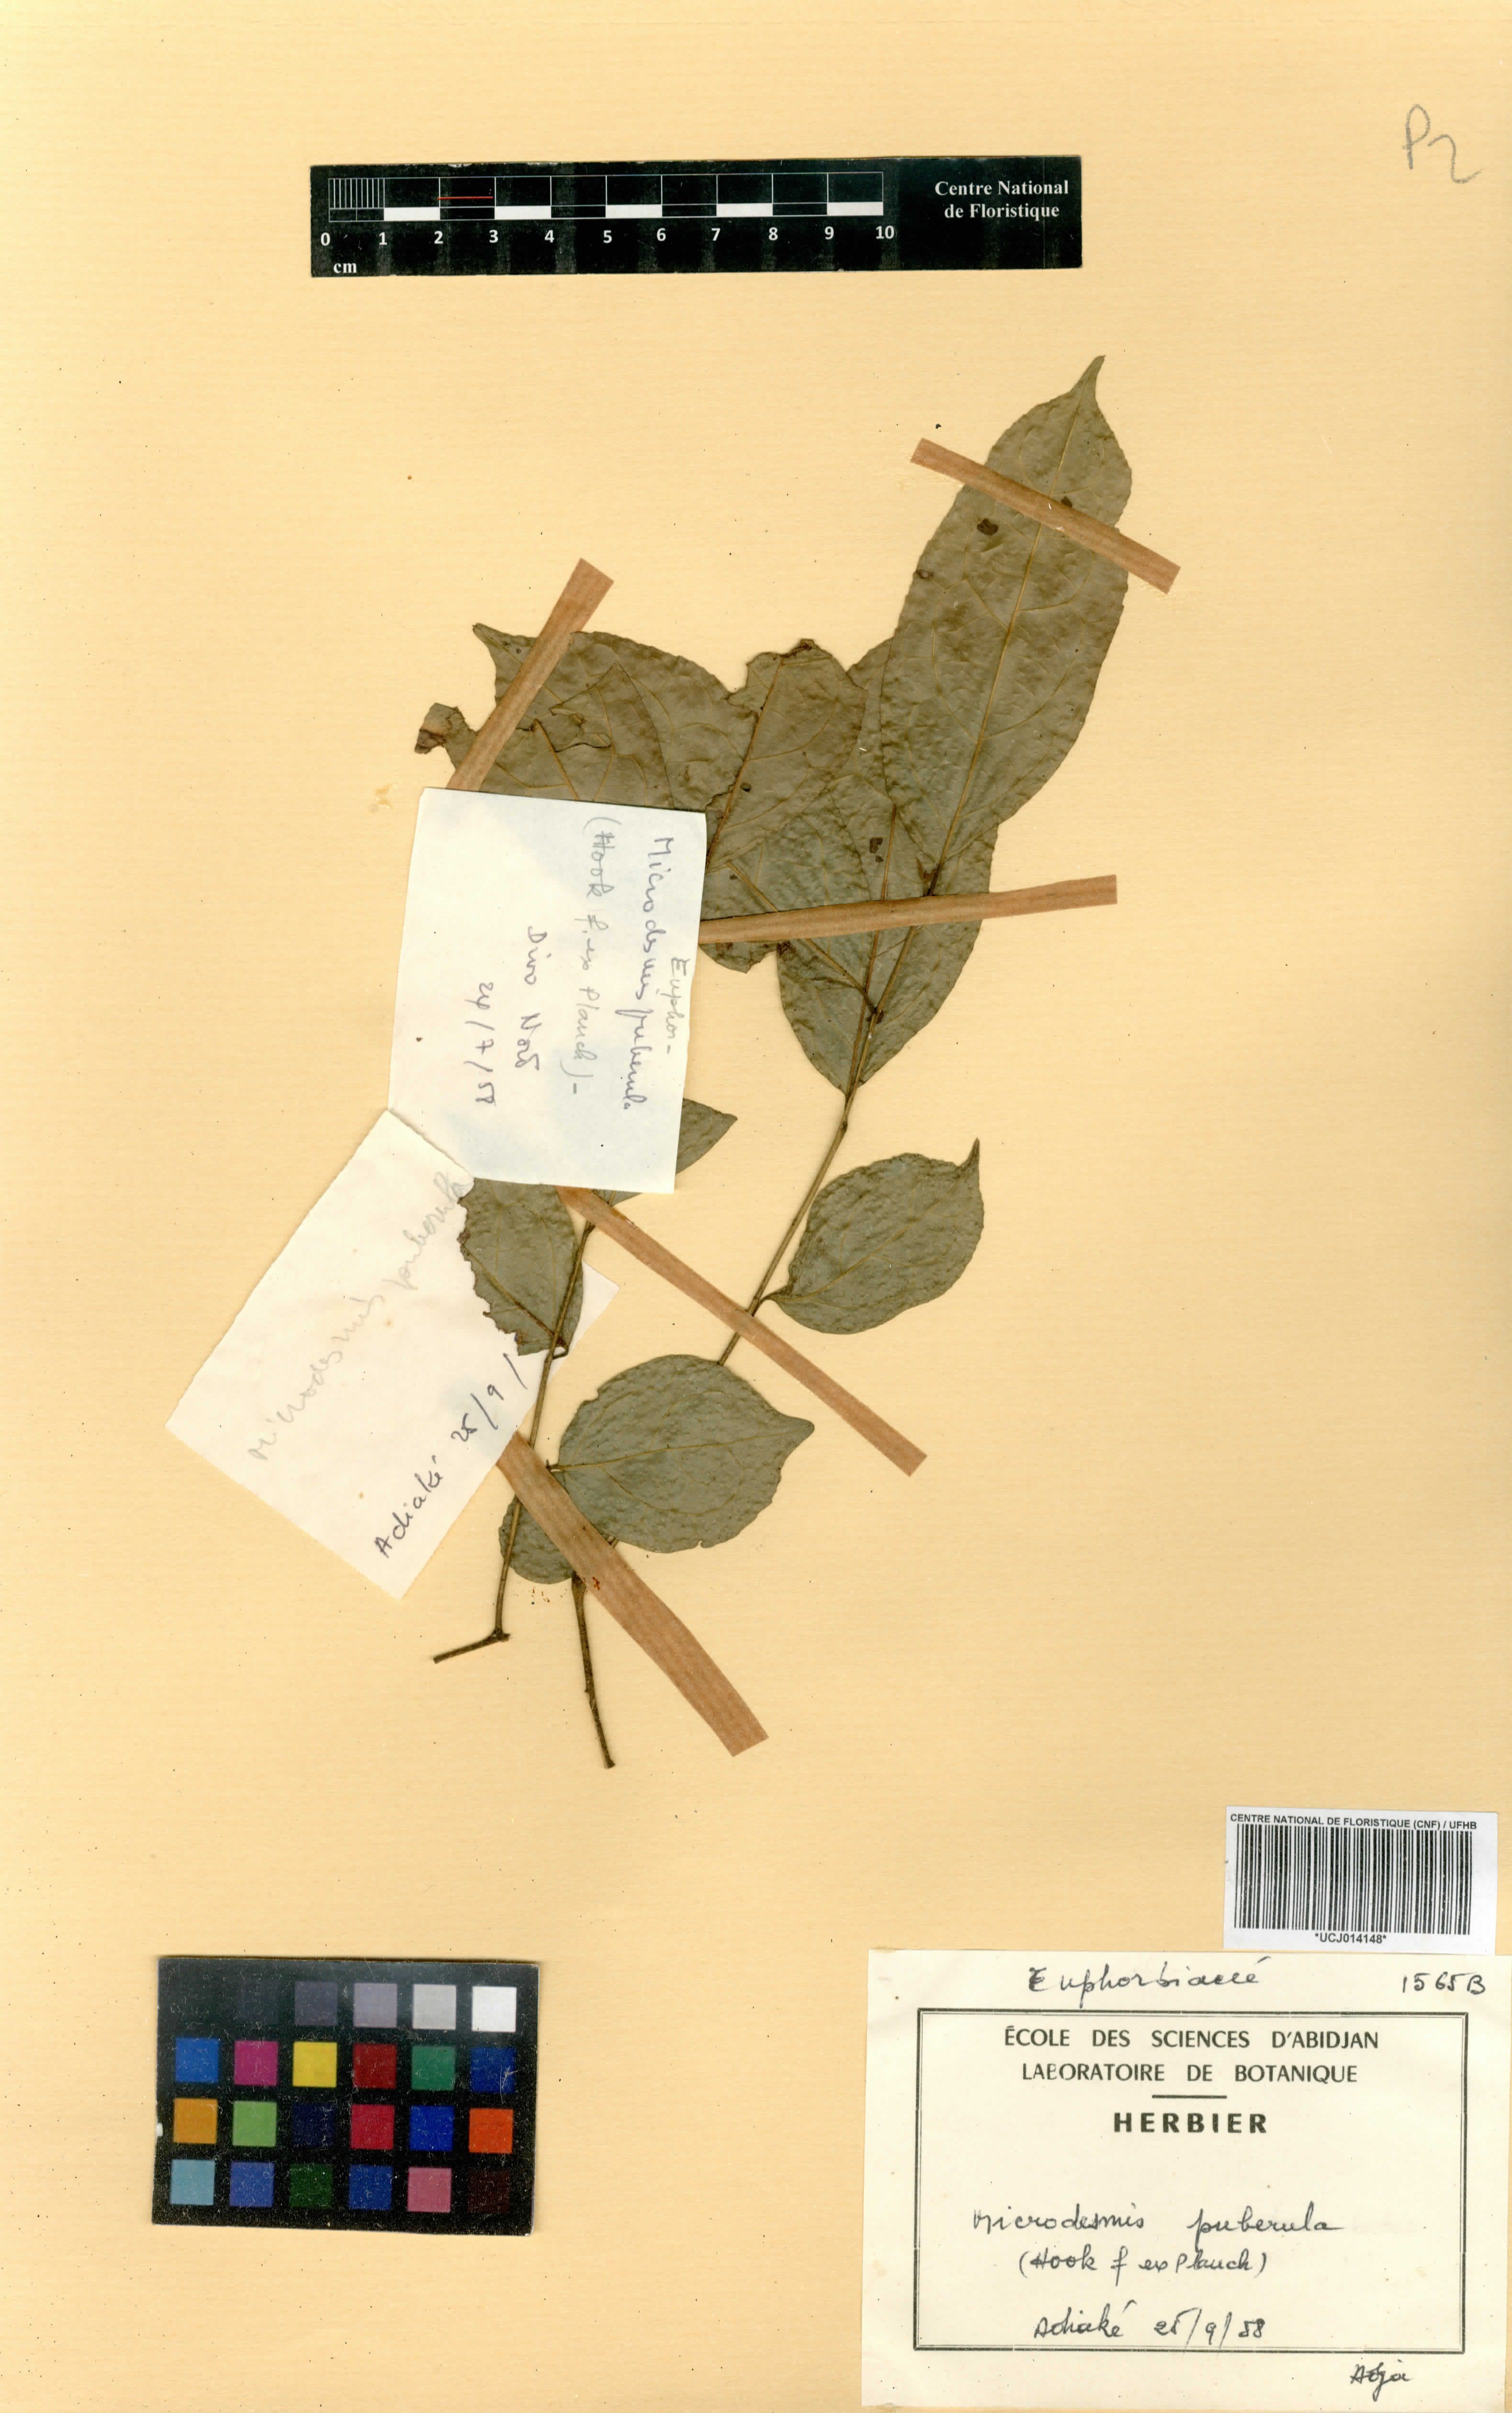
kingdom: Plantae
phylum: Tracheophyta
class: Magnoliopsida
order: Malpighiales
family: Pandaceae
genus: Microdesmis
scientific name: Microdesmis puberula
